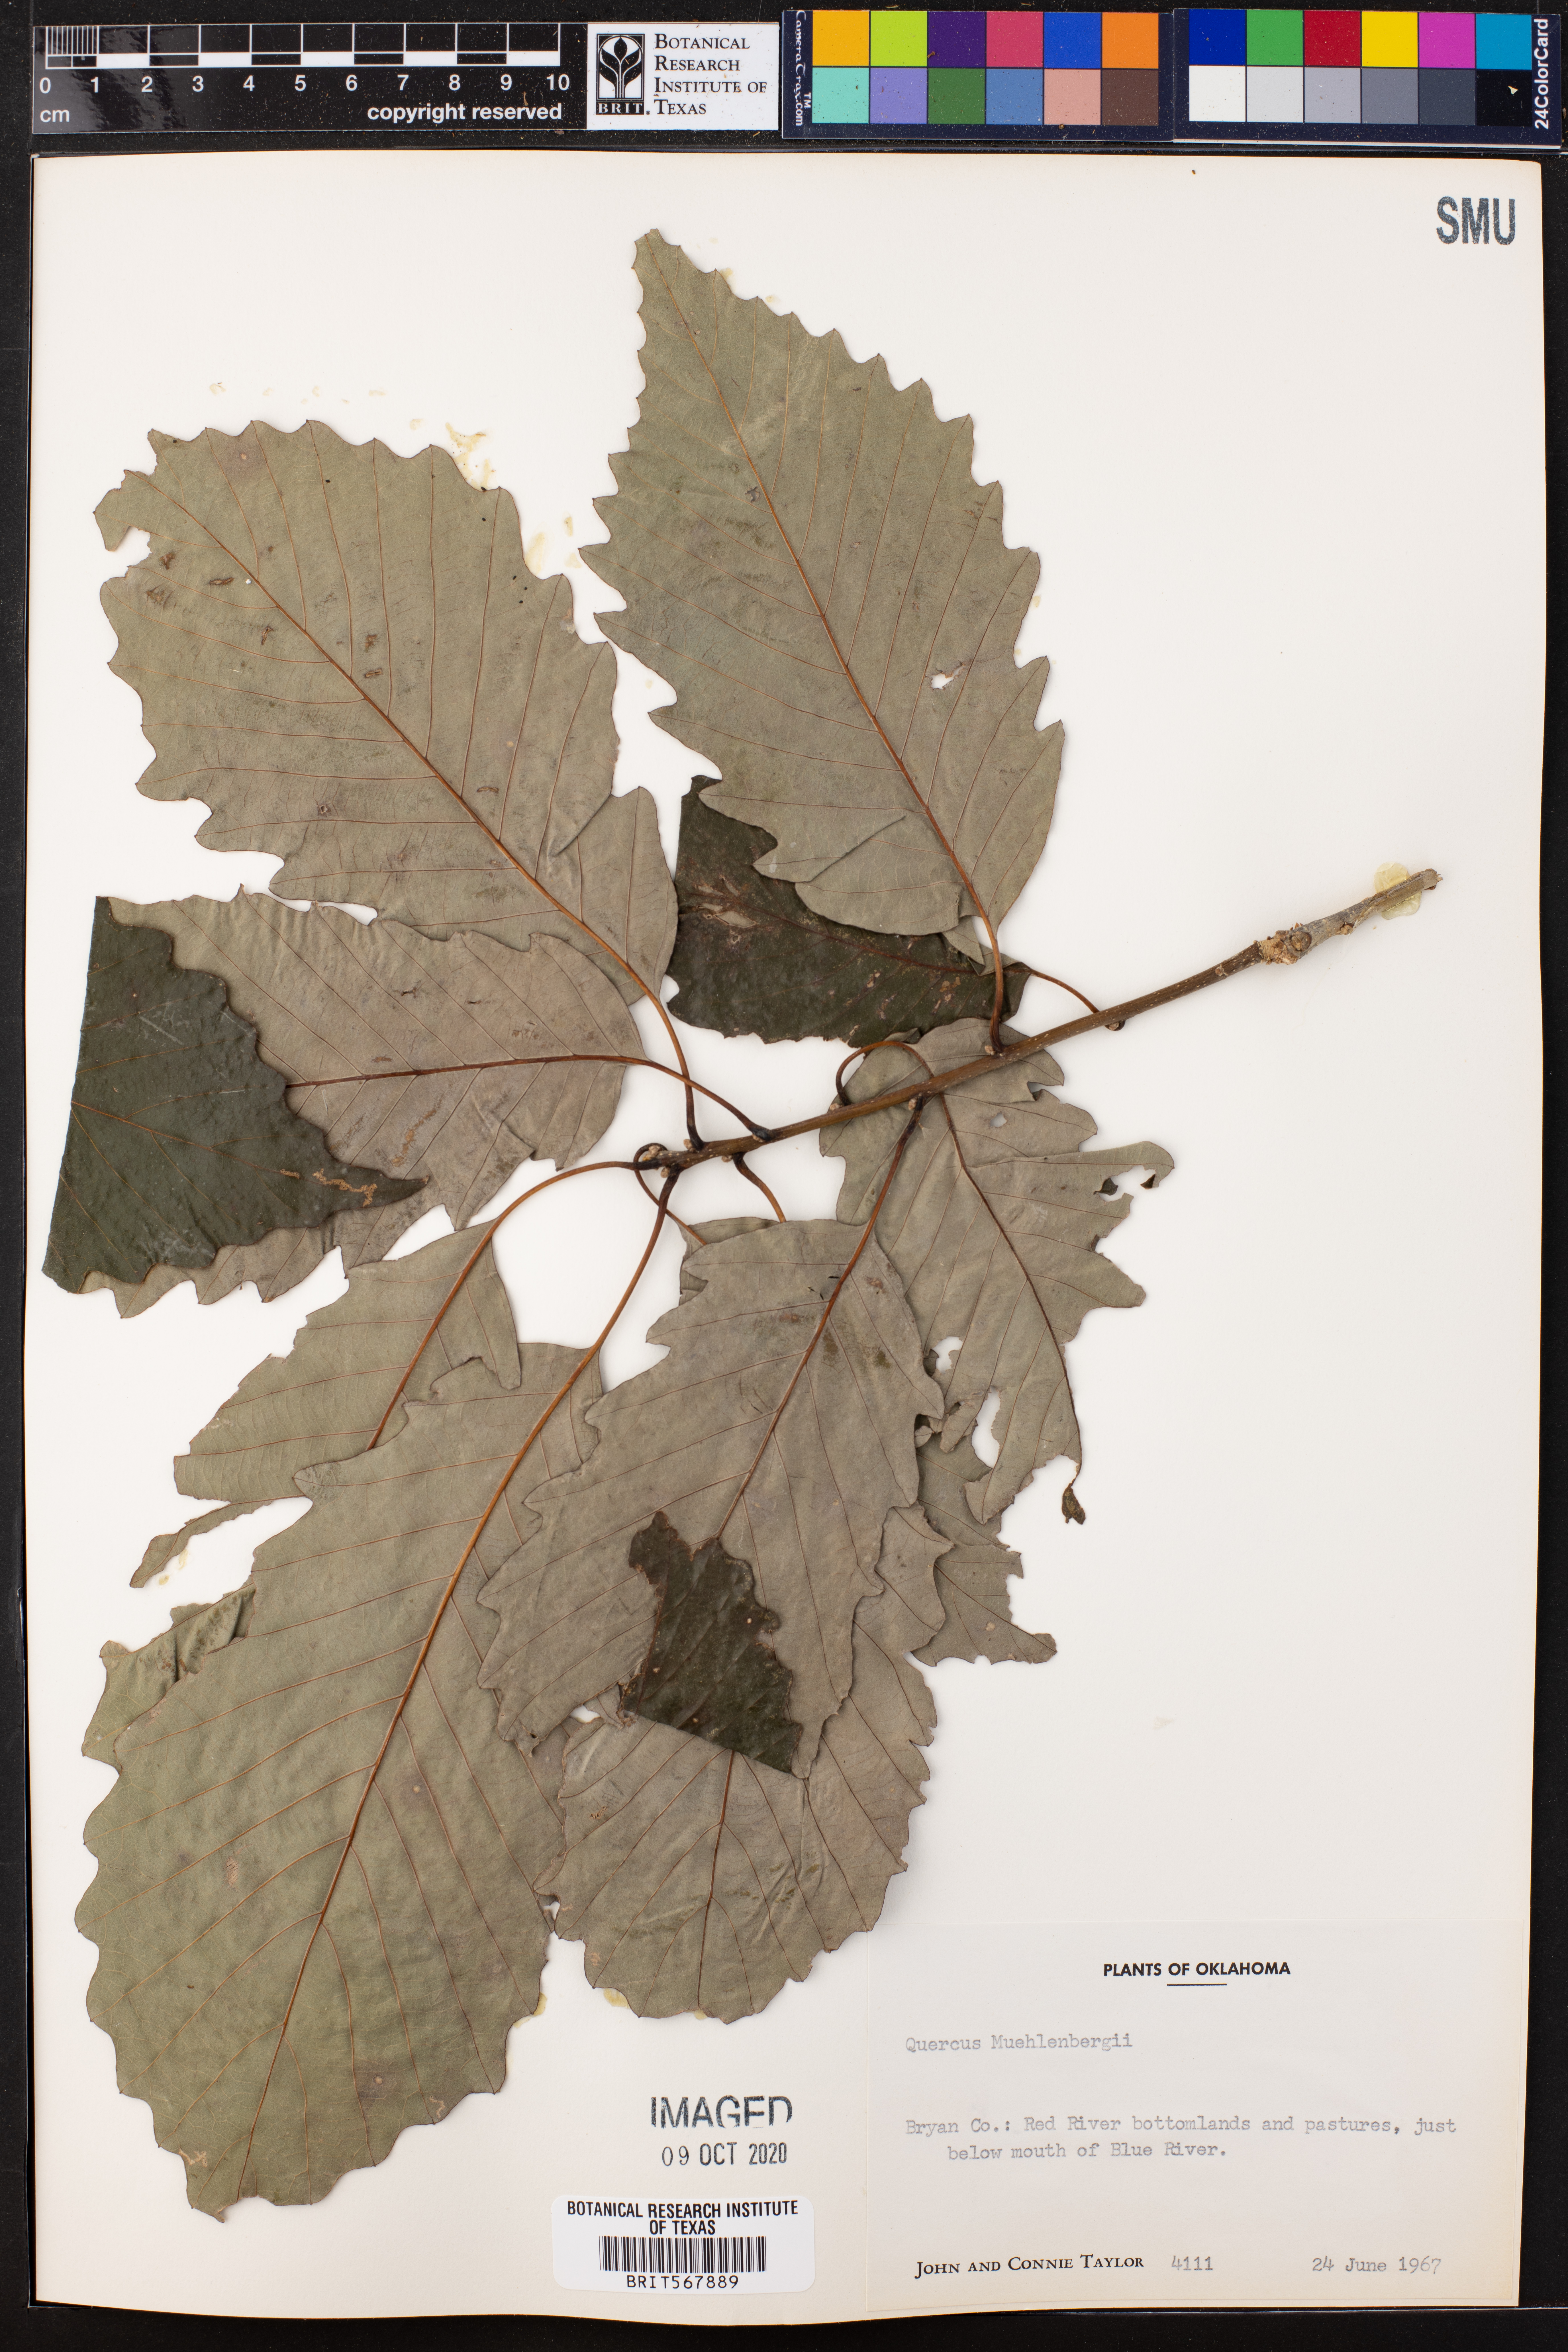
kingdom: Plantae
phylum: Tracheophyta
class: Magnoliopsida
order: Fagales
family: Fagaceae
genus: Quercus
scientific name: Quercus muehlenbergii
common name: Chinkapin oak
